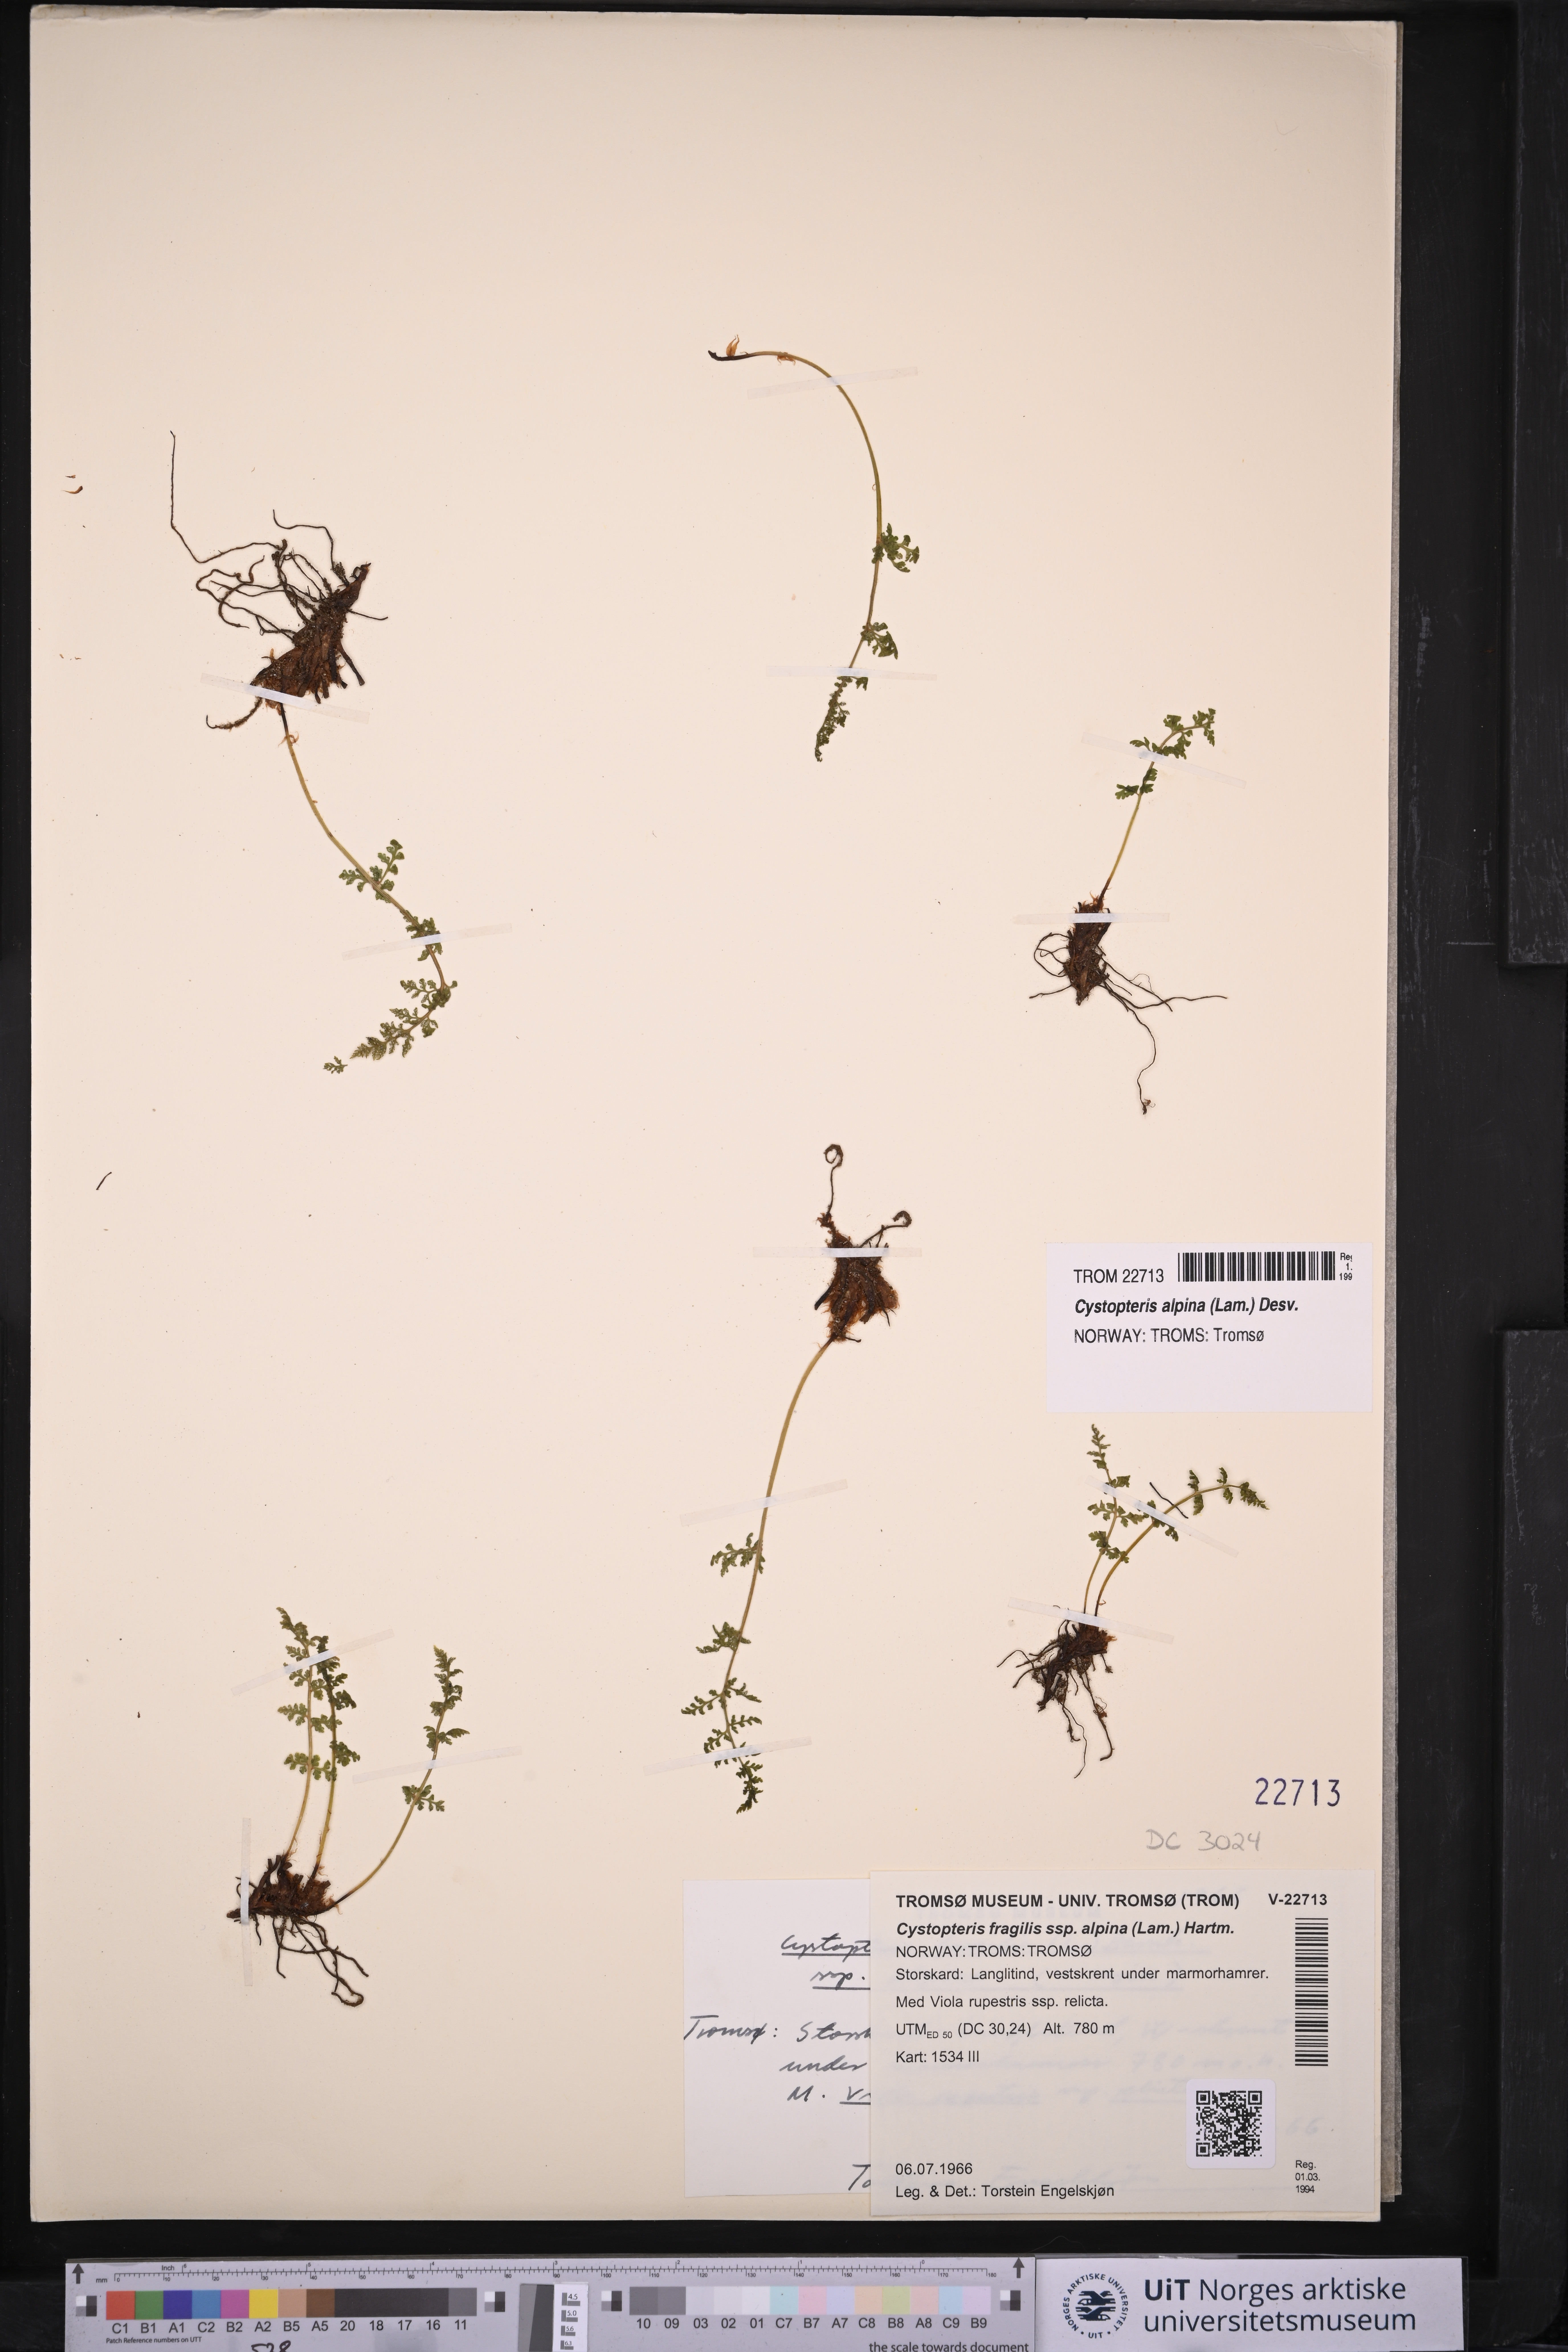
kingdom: Plantae
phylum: Tracheophyta
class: Polypodiopsida
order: Polypodiales
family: Cystopteridaceae
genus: Cystopteris
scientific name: Cystopteris alpina
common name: Alpine bladder-fern
